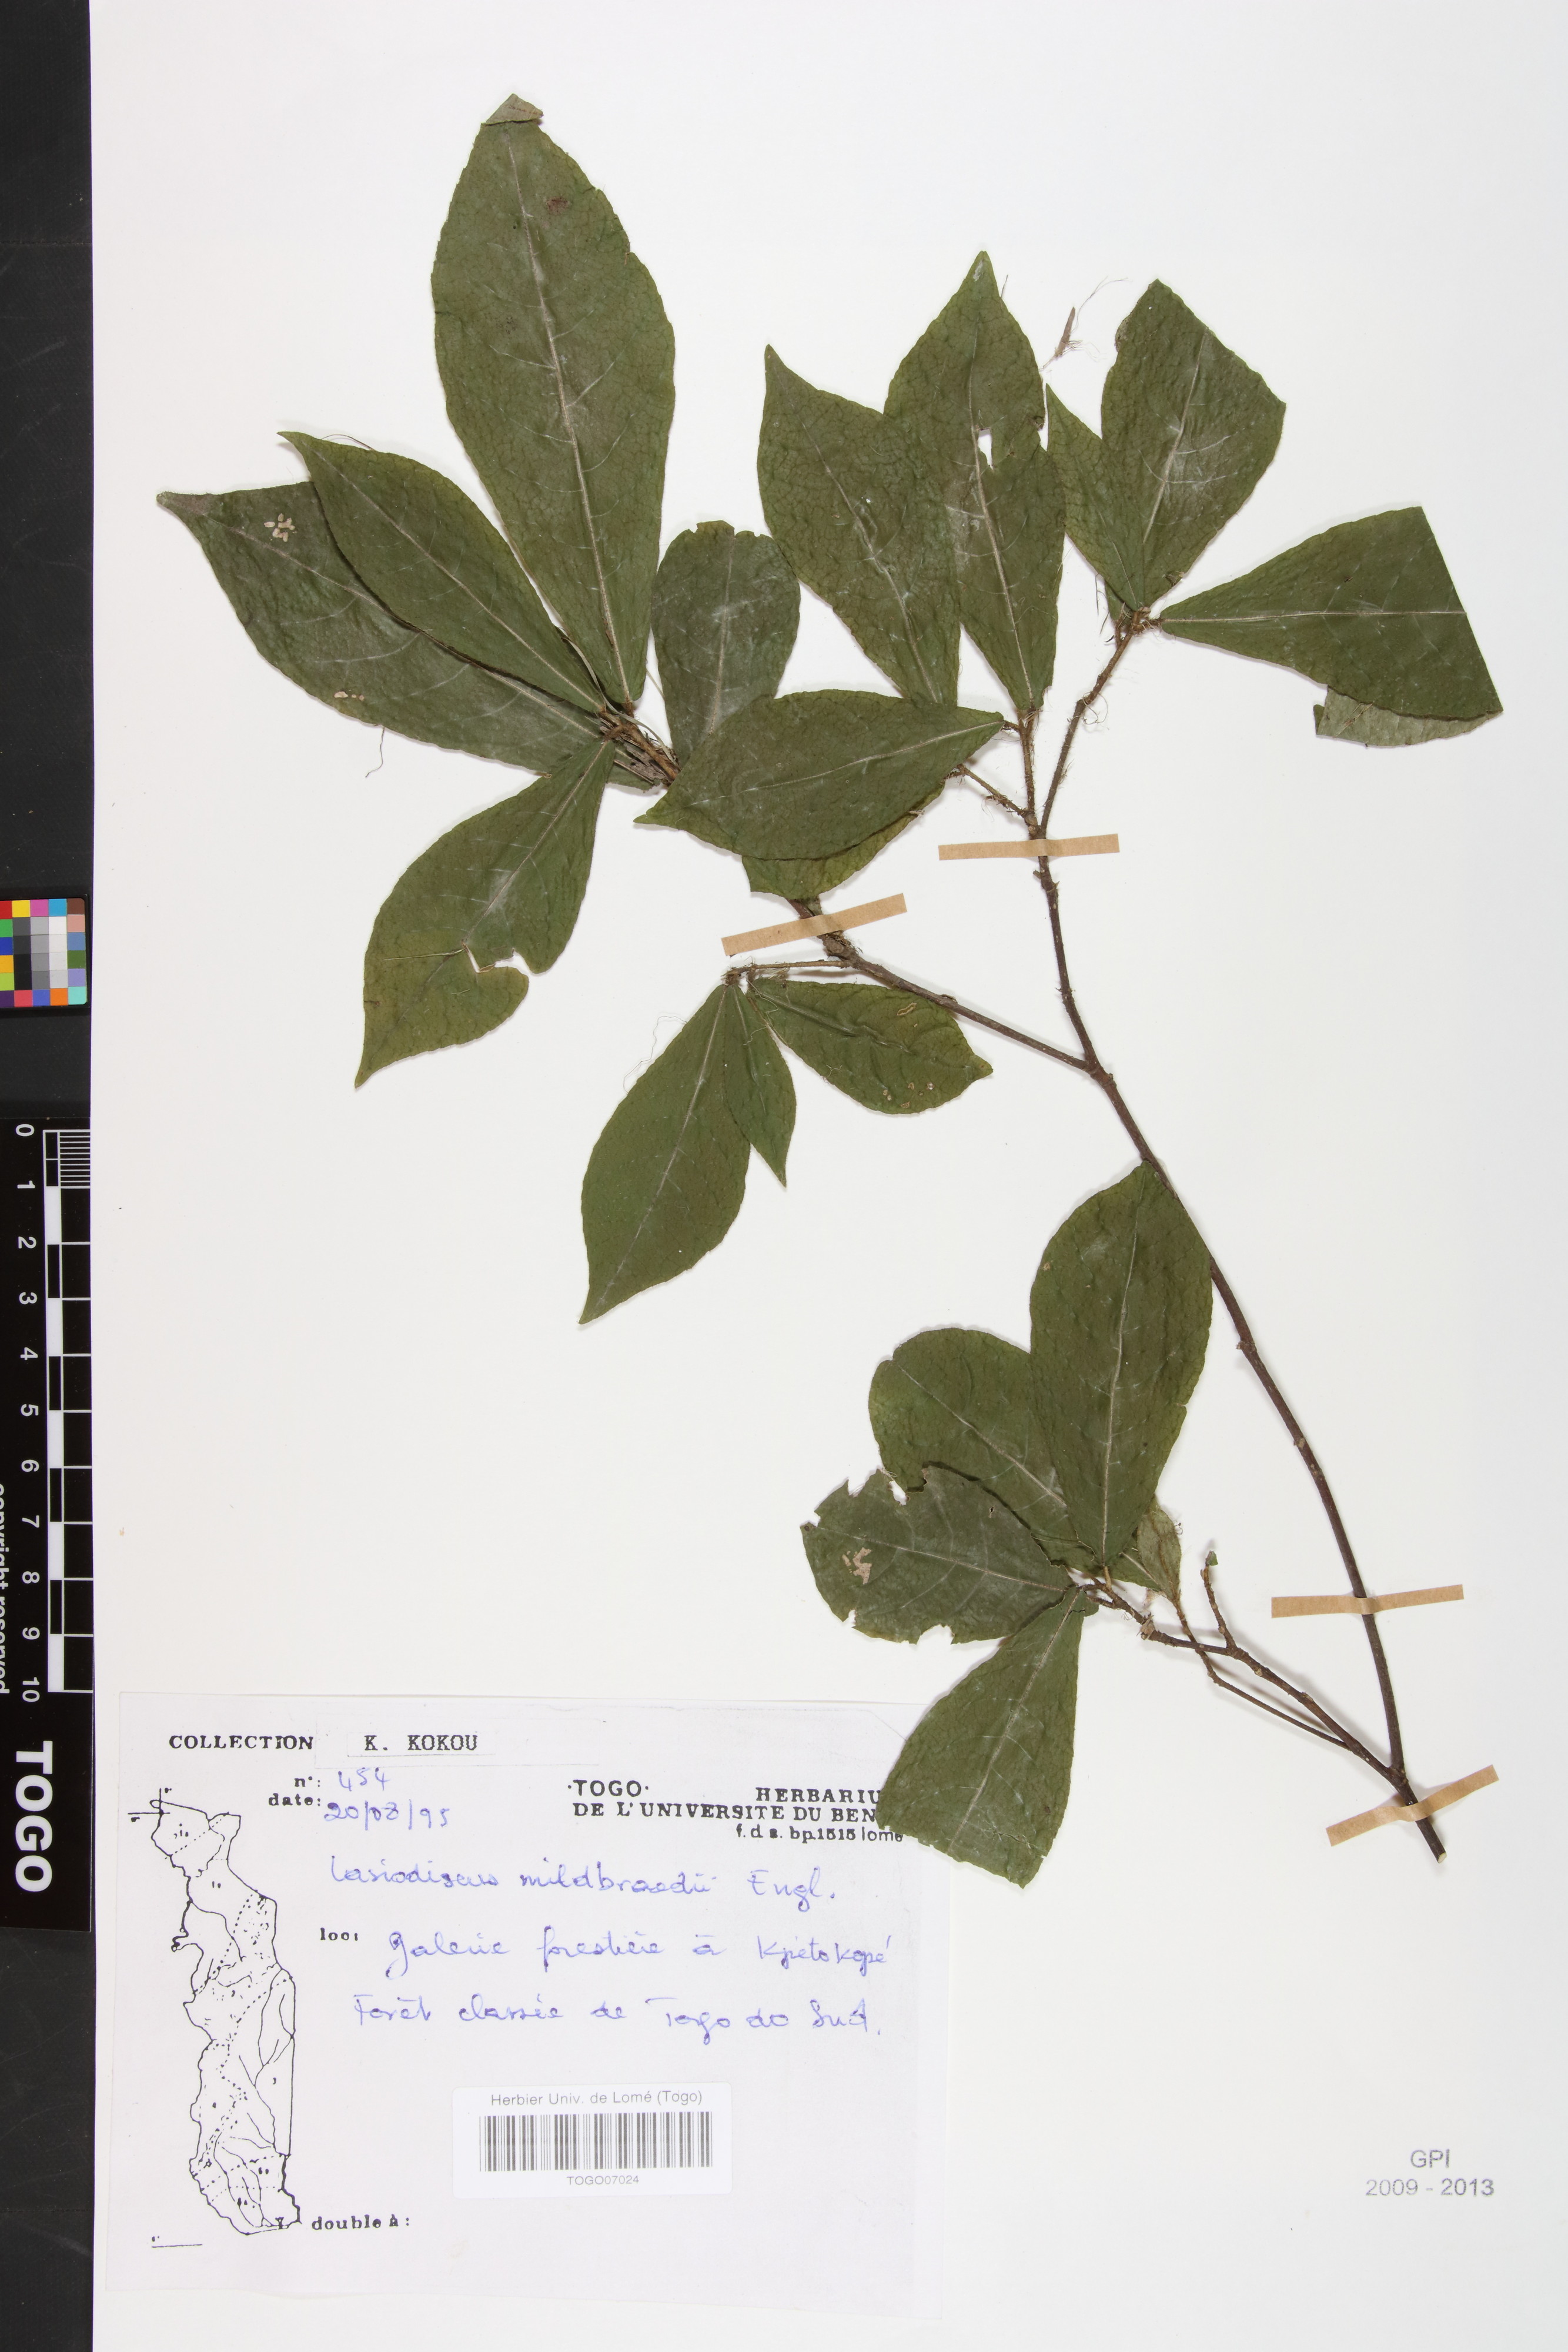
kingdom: Plantae
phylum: Tracheophyta
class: Magnoliopsida
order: Rosales
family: Rhamnaceae
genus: Lasiodiscus
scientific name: Lasiodiscus mildbraedii
